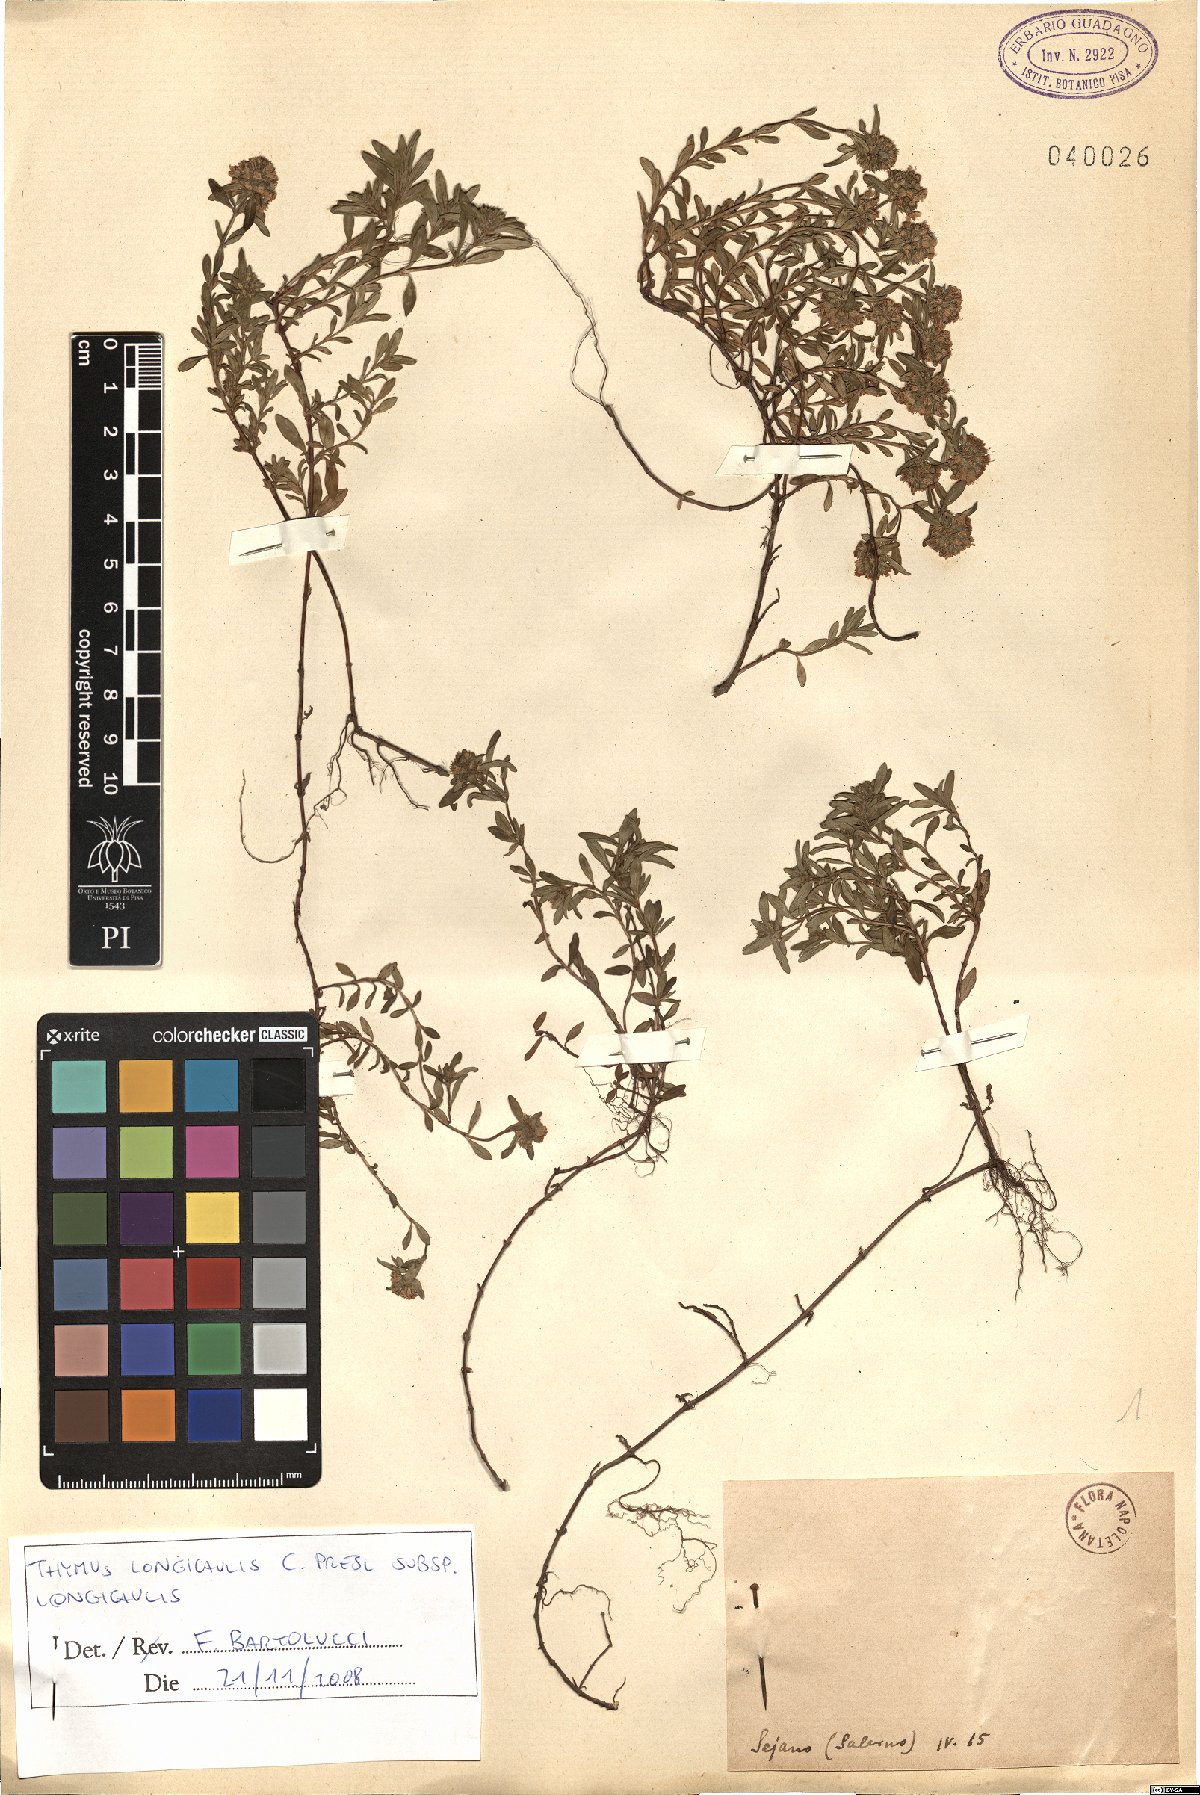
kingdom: Plantae
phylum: Tracheophyta
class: Magnoliopsida
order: Lamiales
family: Lamiaceae
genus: Thymus
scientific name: Thymus longicaulis
